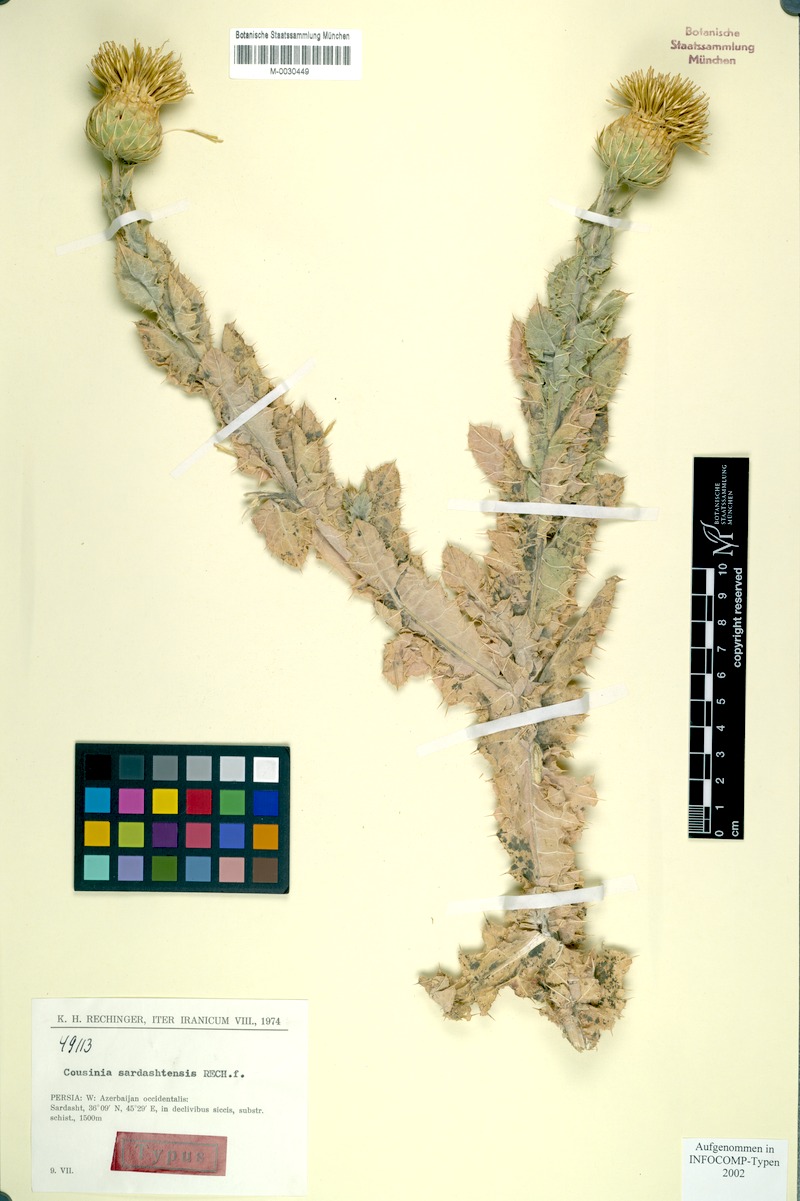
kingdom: Plantae
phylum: Tracheophyta
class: Magnoliopsida
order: Asterales
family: Asteraceae
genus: Cousinia
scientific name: Cousinia pergamacea
